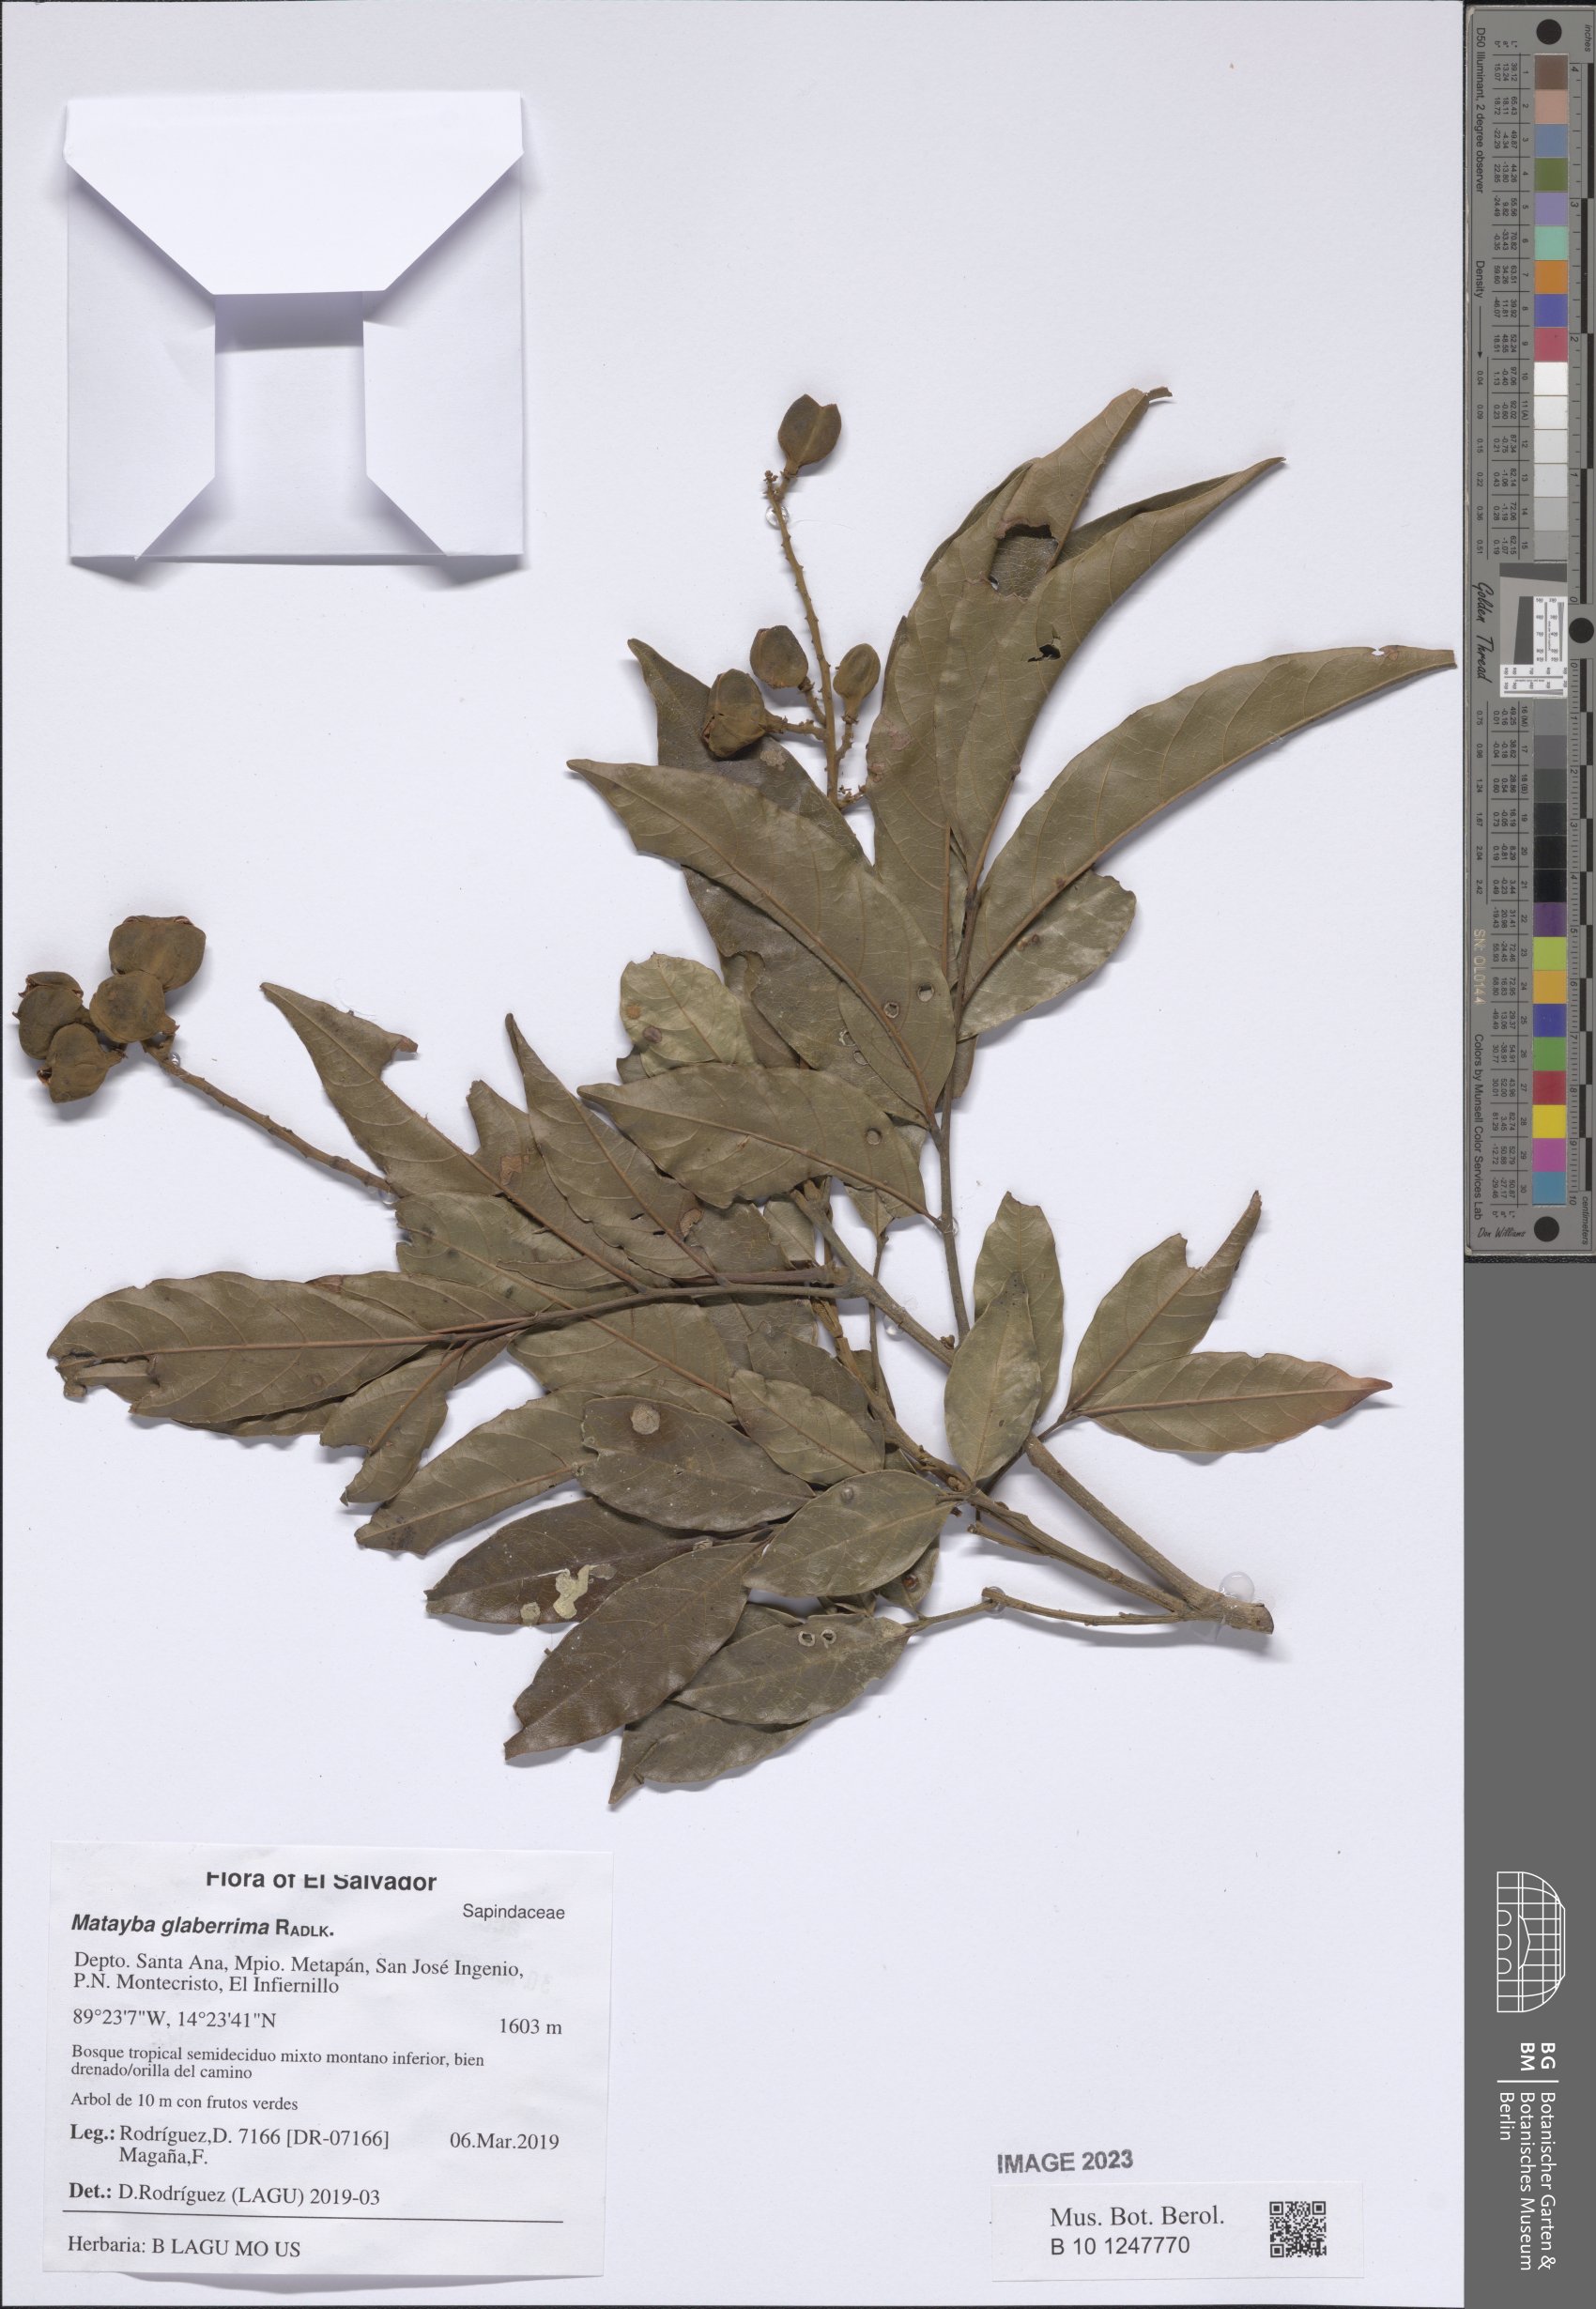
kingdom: Plantae
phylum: Tracheophyta
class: Magnoliopsida
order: Sapindales
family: Sapindaceae
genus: Matayba
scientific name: Matayba glaberrima
